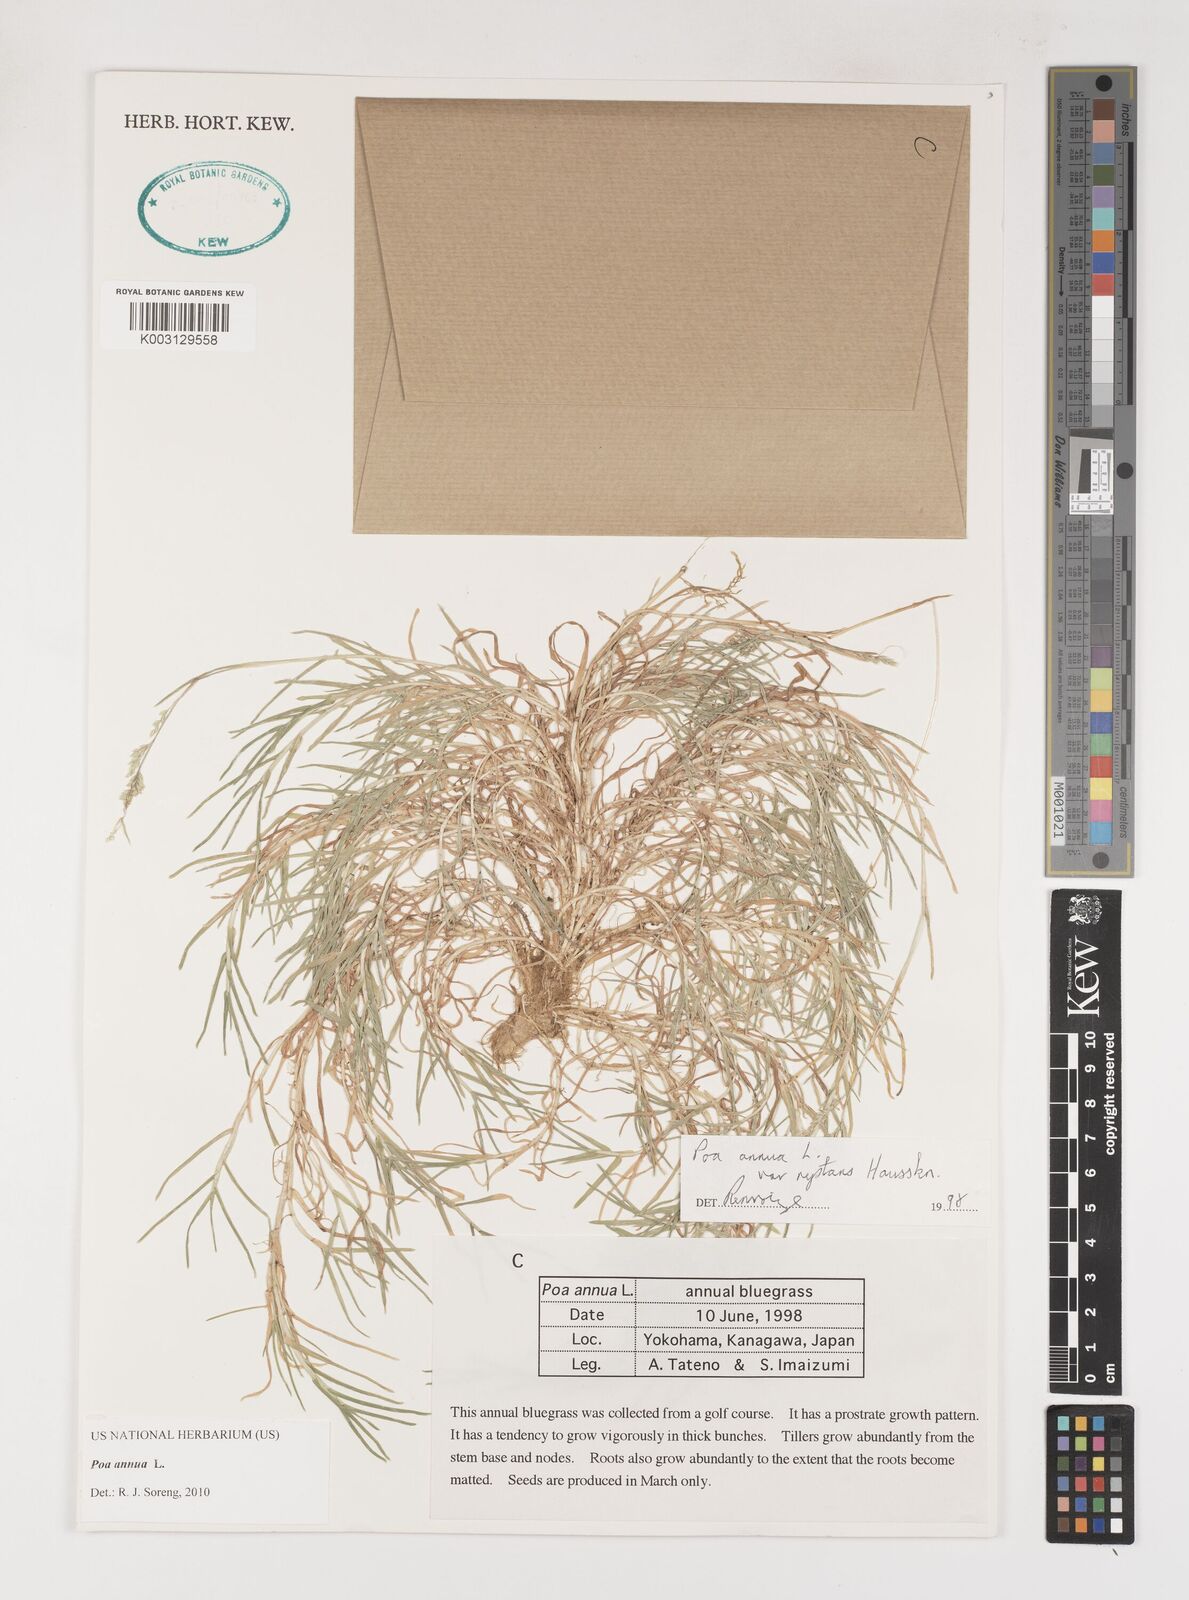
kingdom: Plantae
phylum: Tracheophyta
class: Liliopsida
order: Poales
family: Poaceae
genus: Poa
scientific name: Poa annua
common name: Annual bluegrass
